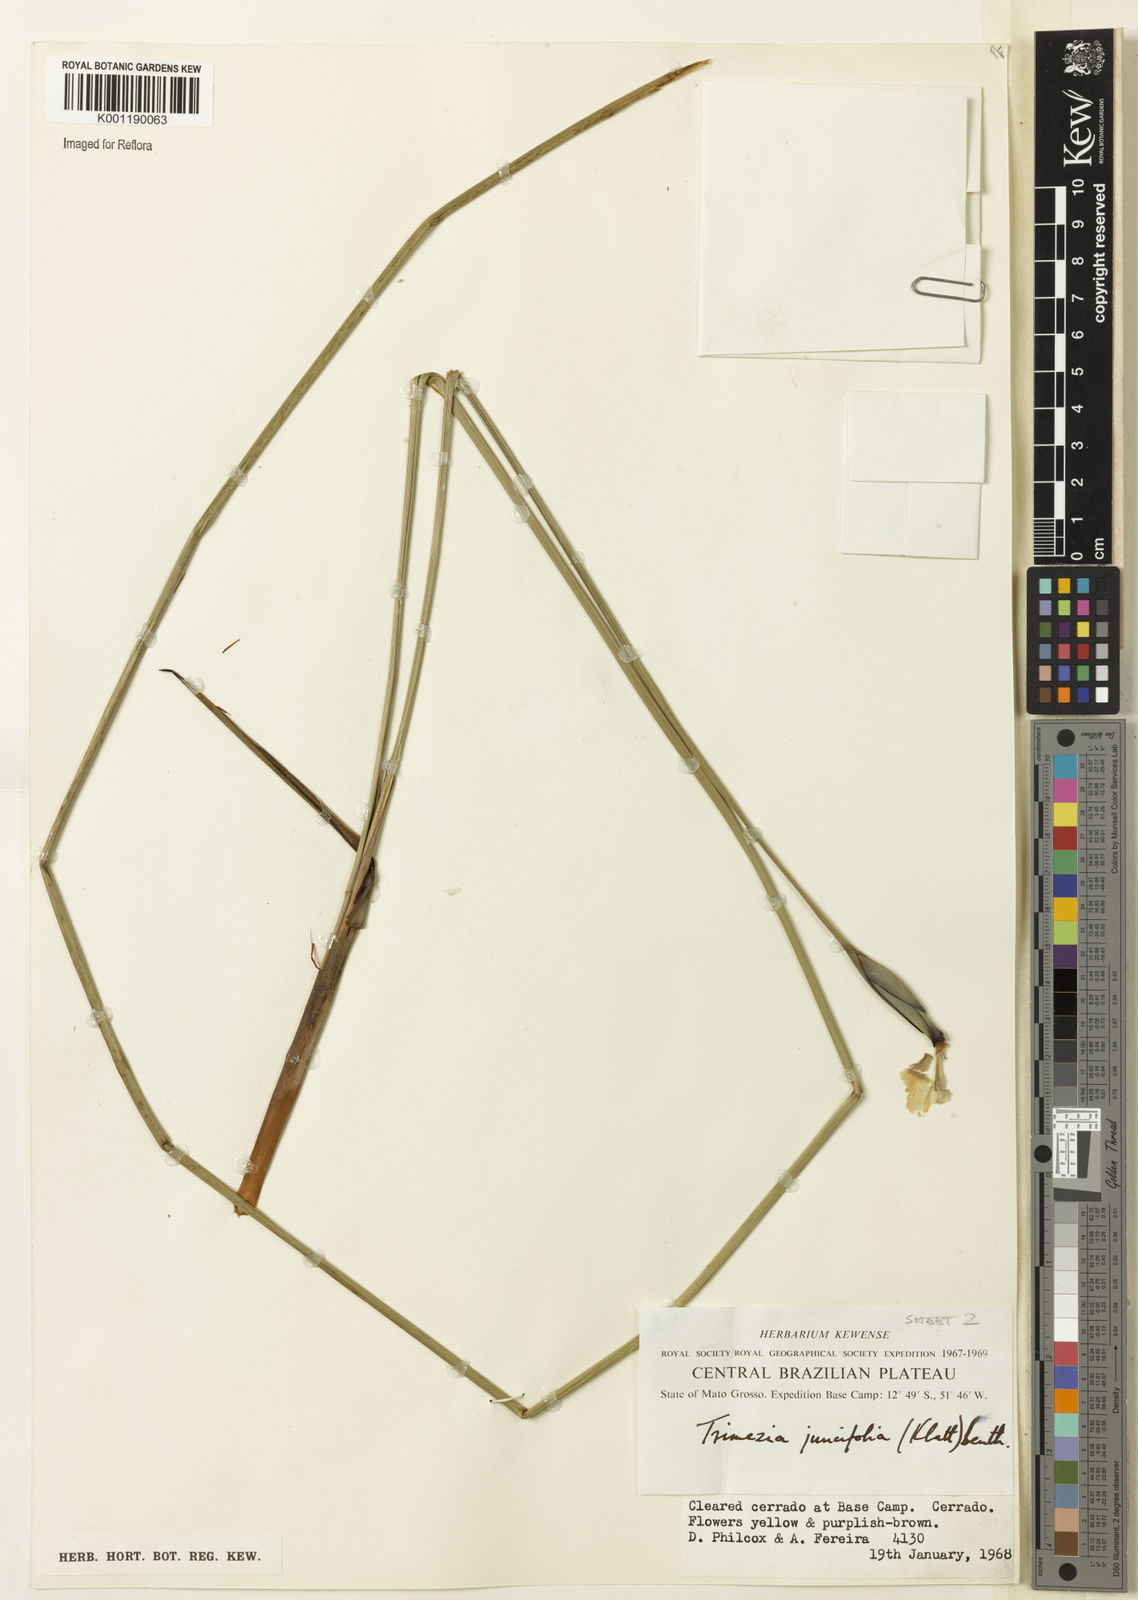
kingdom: Plantae
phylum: Tracheophyta
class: Liliopsida
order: Asparagales
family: Iridaceae
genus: Trimezia
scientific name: Trimezia juncifolia
